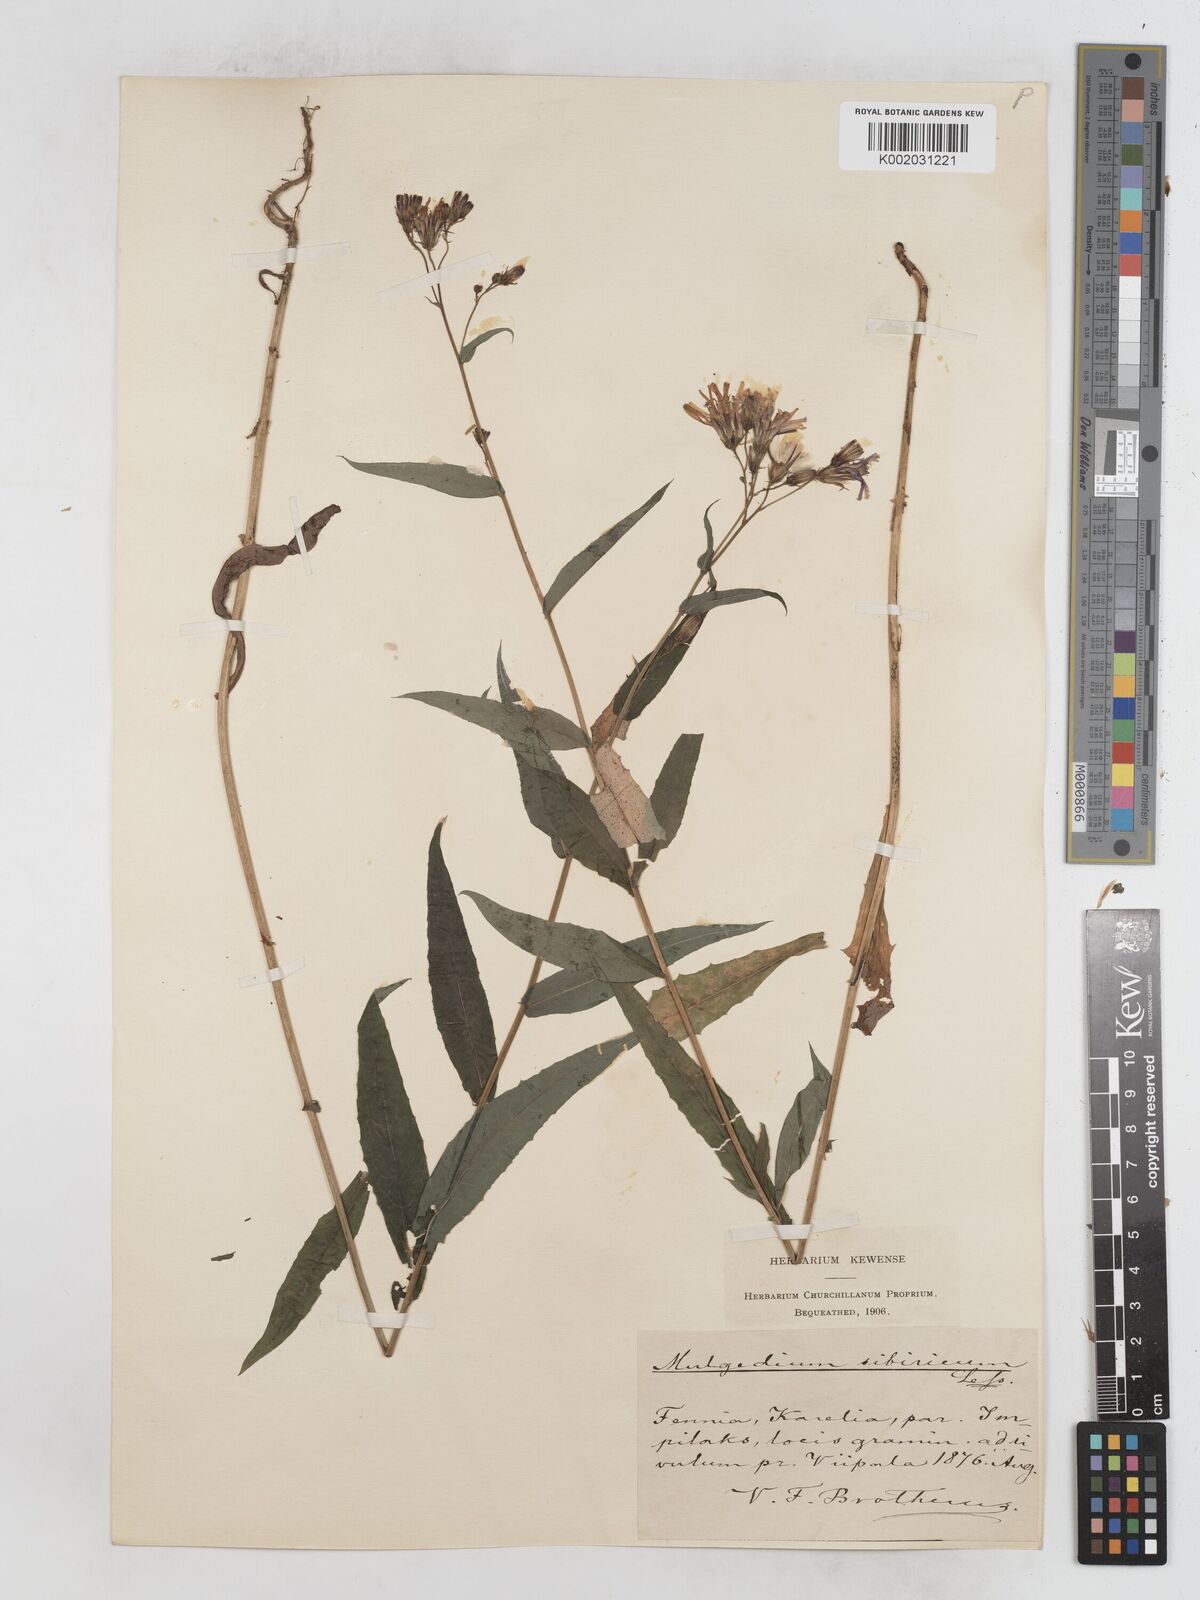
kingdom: Plantae
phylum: Tracheophyta
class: Magnoliopsida
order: Asterales
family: Asteraceae
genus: Lactuca
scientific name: Lactuca sibirica
